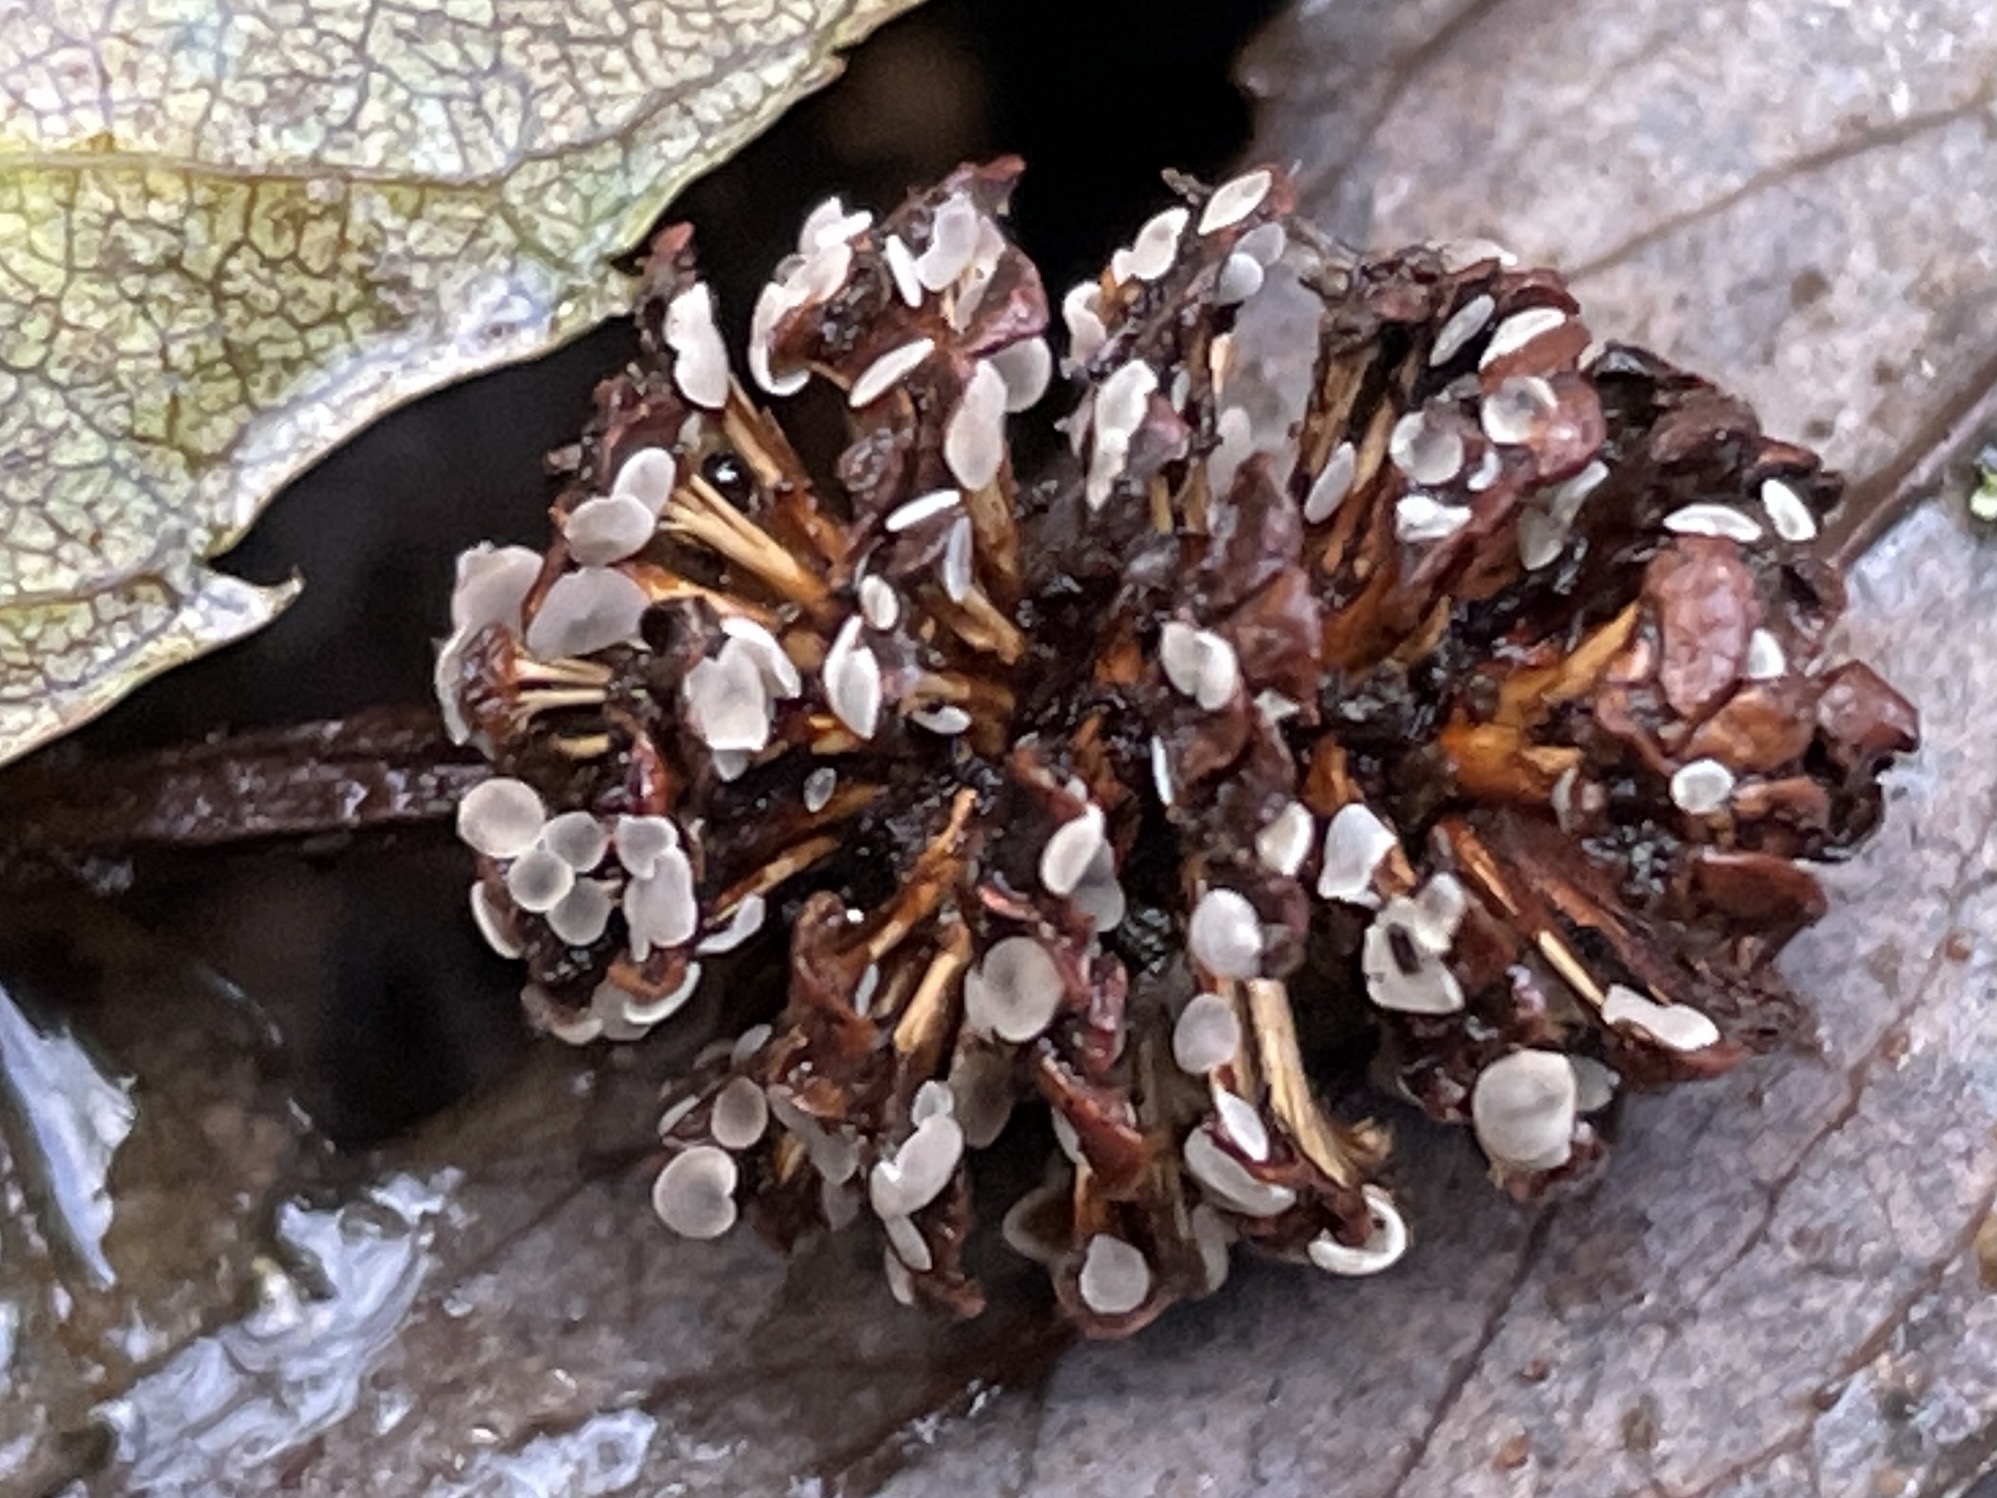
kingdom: Fungi
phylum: Ascomycota
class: Leotiomycetes
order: Helotiales
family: Mollisiaceae
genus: Mollisia
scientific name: Mollisia amenticola
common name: ellekogle-gråskive
